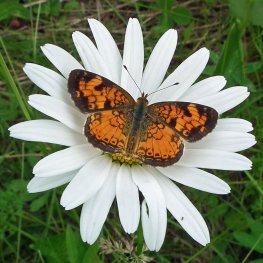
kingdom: Animalia
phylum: Arthropoda
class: Insecta
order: Lepidoptera
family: Nymphalidae
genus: Phyciodes
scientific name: Phyciodes tharos
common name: Pearl Crescent
